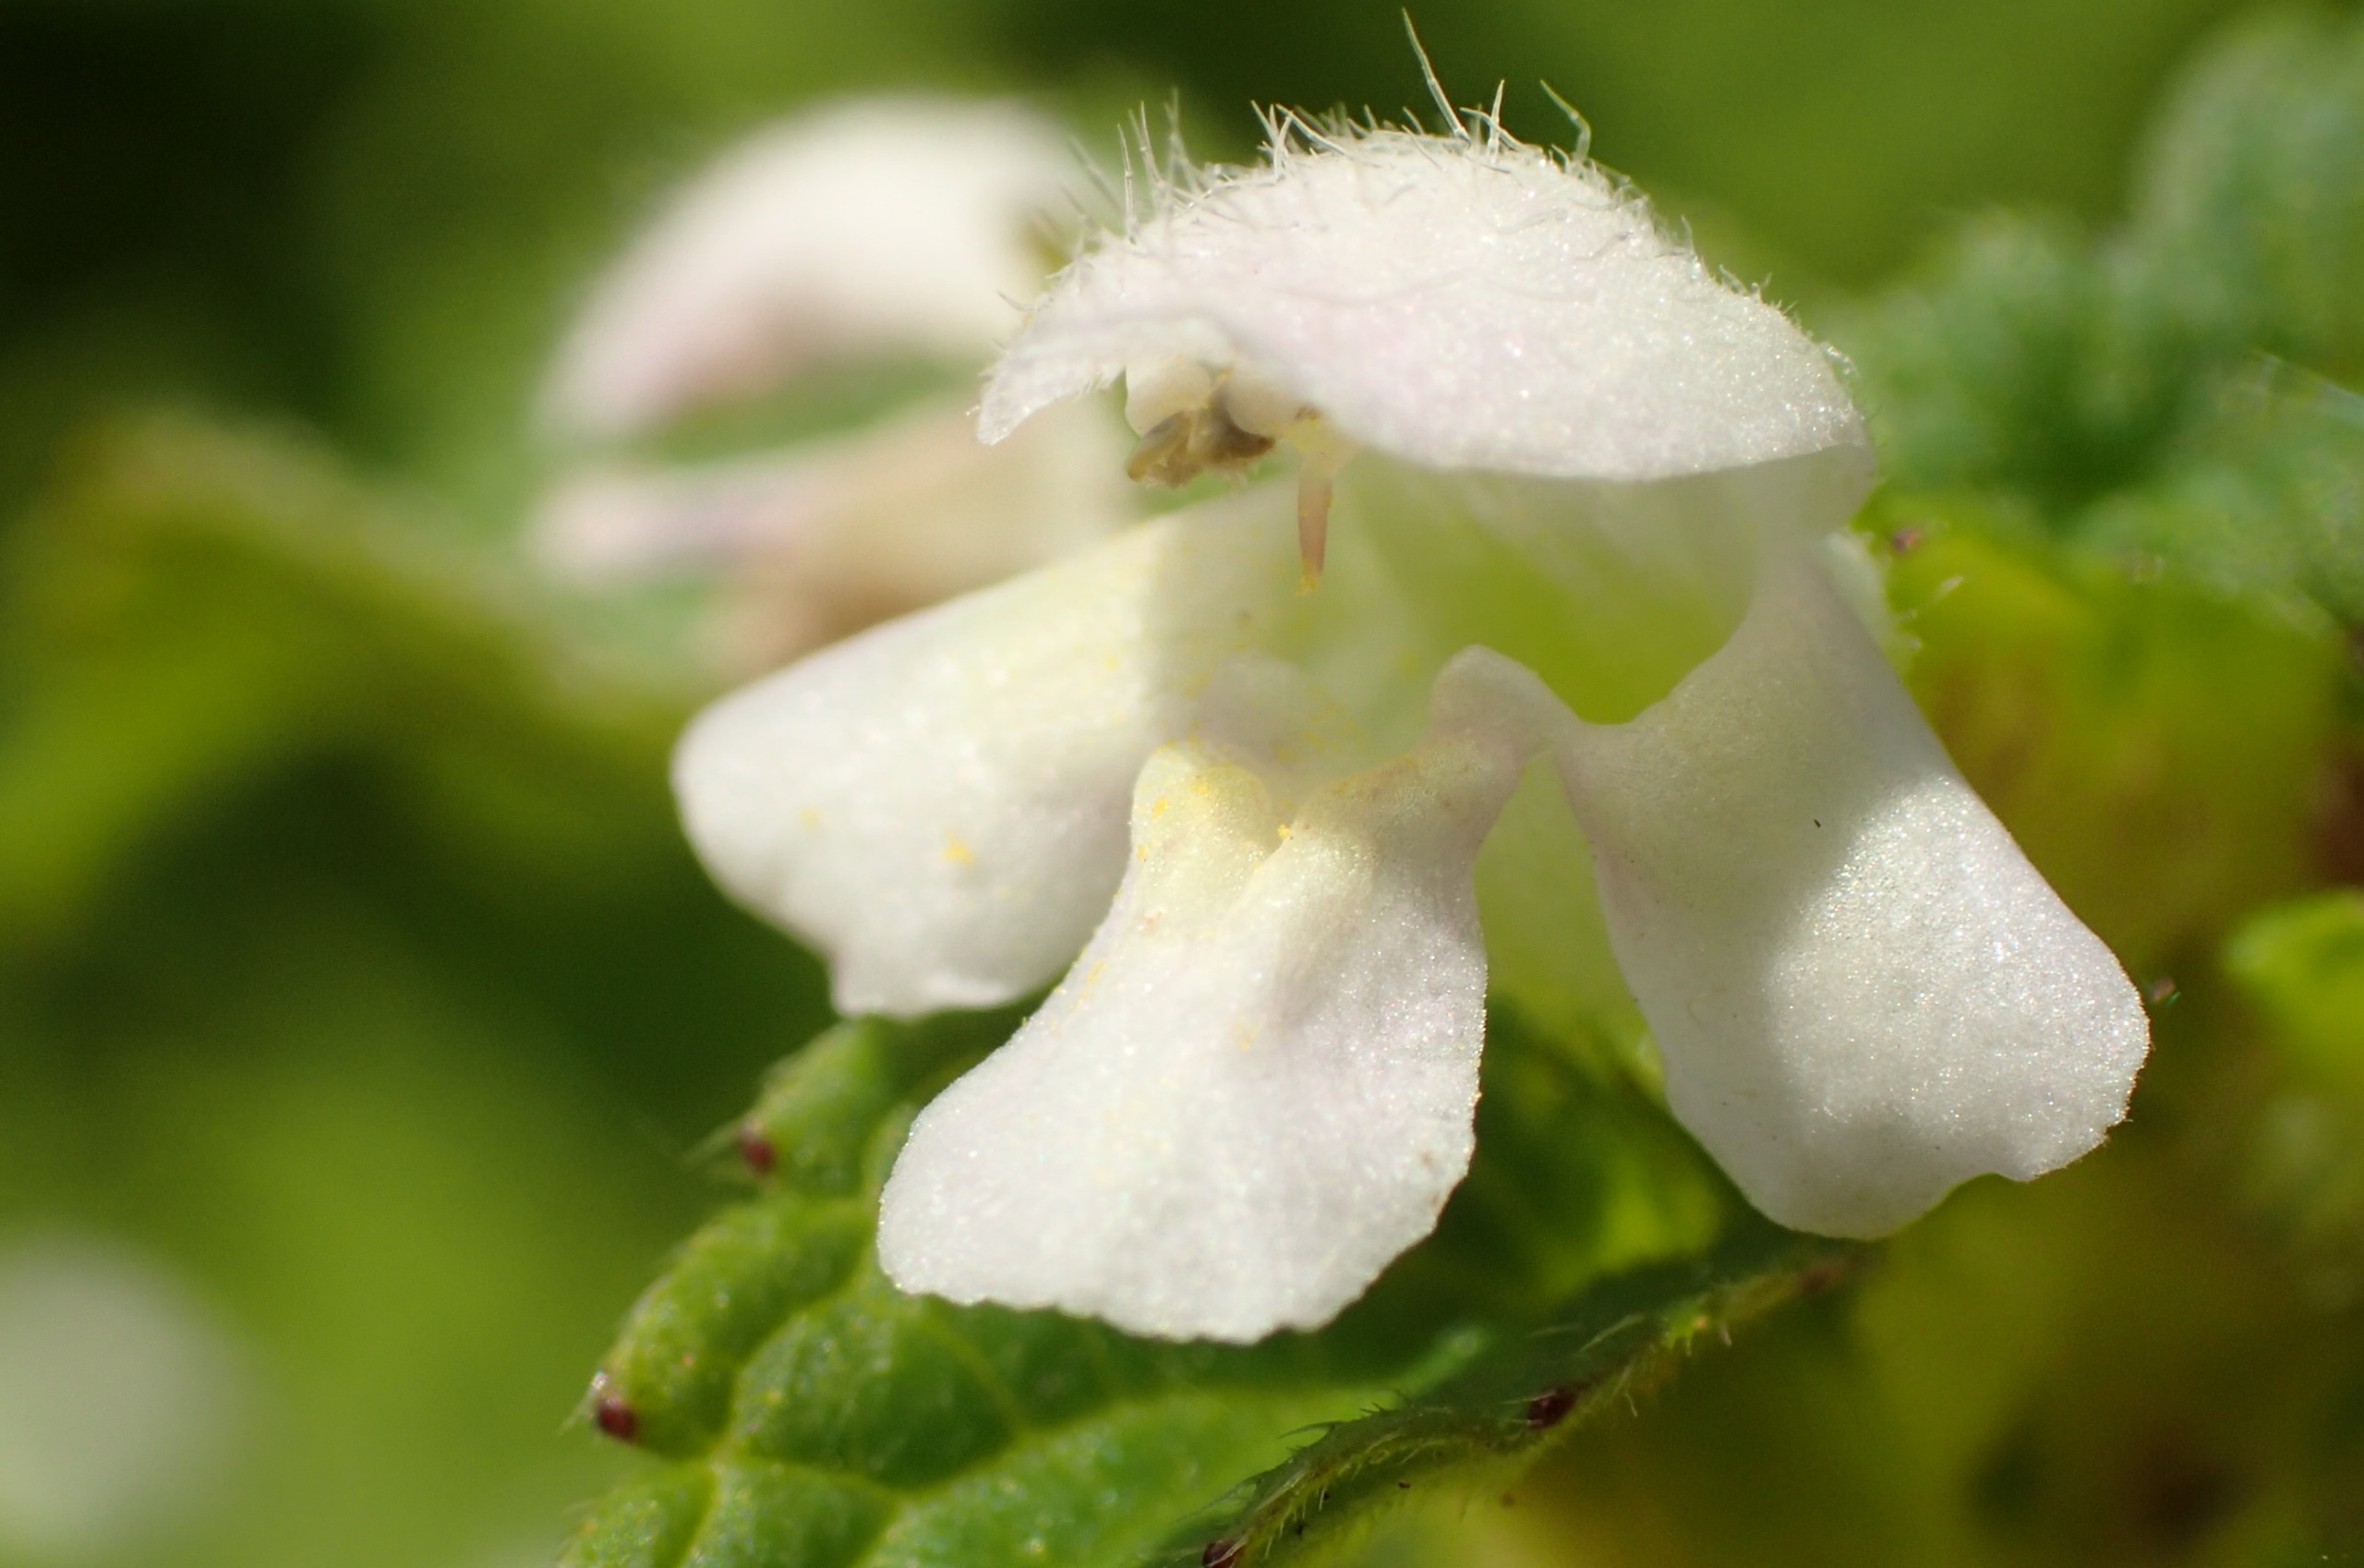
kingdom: Plantae
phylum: Tracheophyta
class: Magnoliopsida
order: Lamiales
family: Lamiaceae
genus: Galeopsis
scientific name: Galeopsis tetrahit
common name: Almindelig hanekro
